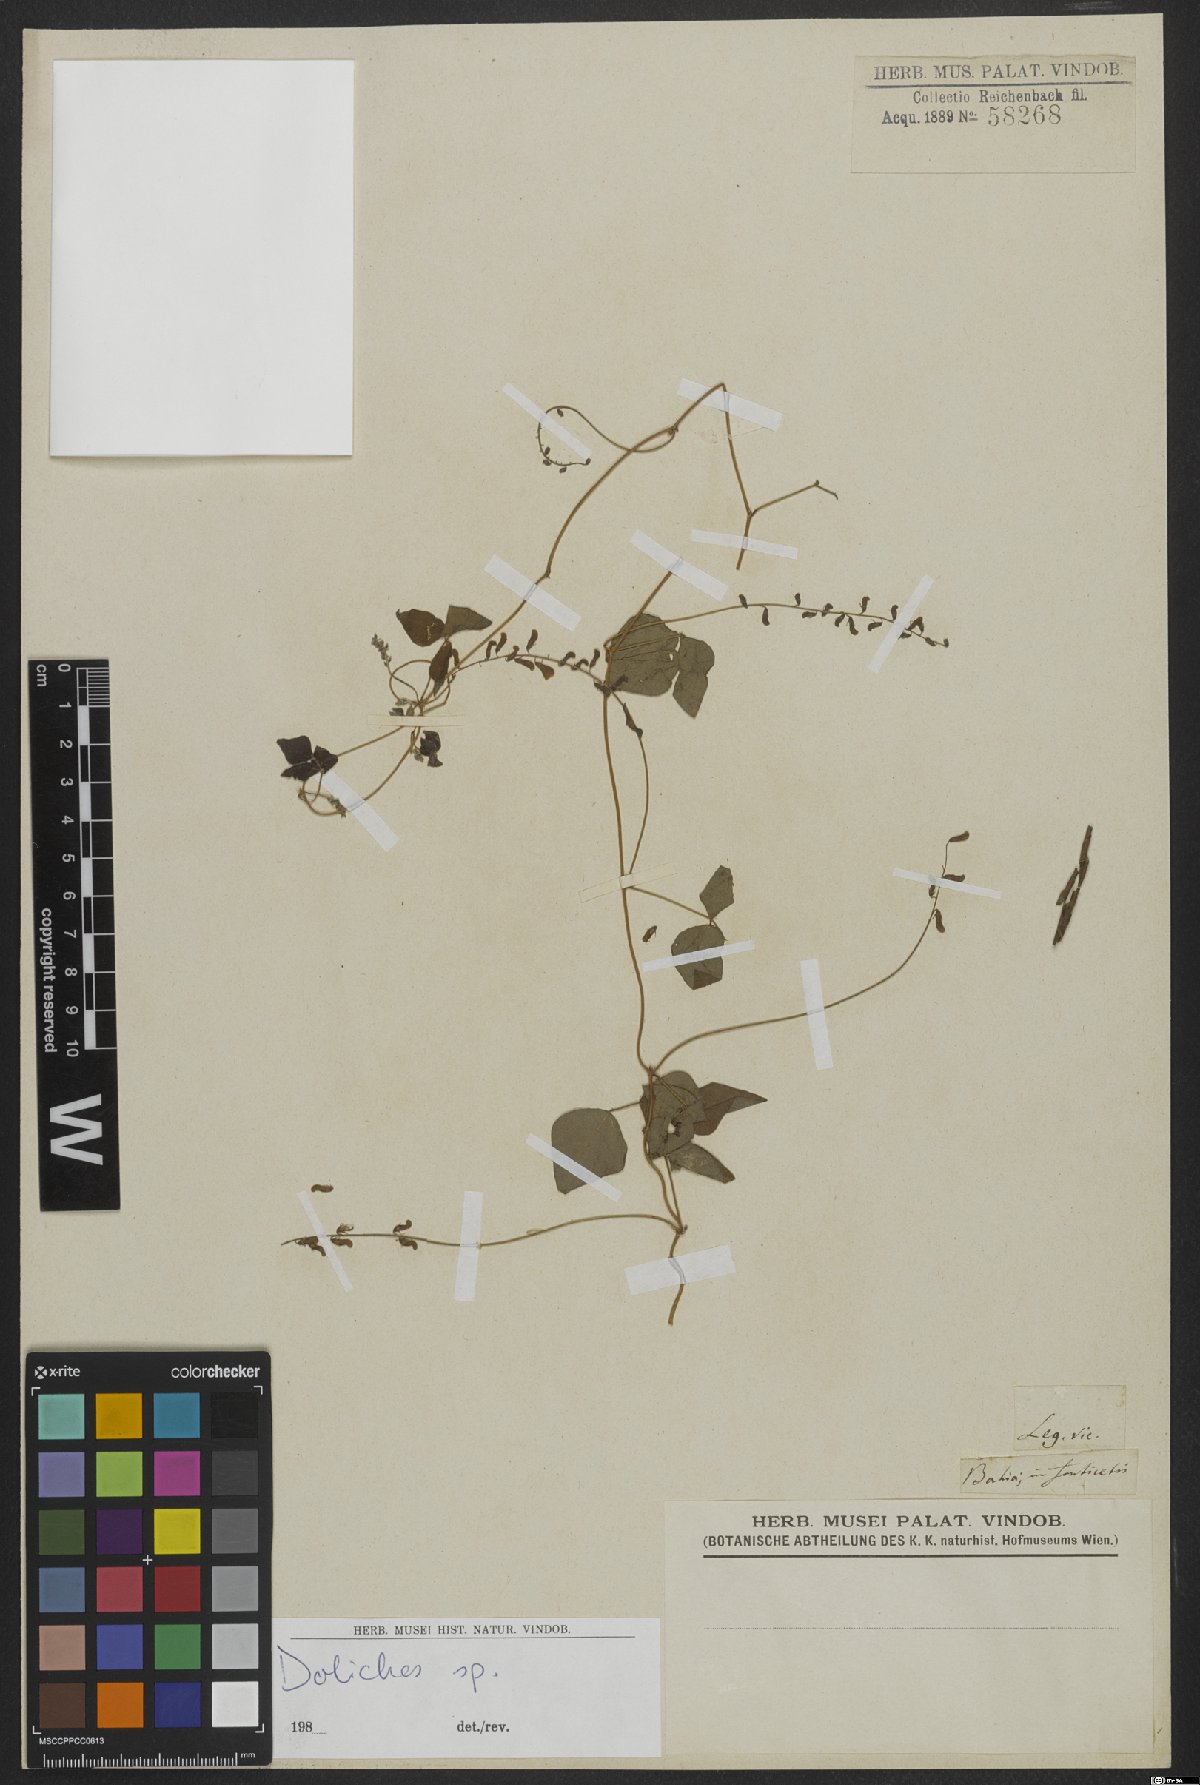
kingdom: Plantae
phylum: Tracheophyta
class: Magnoliopsida
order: Fabales
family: Fabaceae
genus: Dolichos
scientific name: Dolichos
